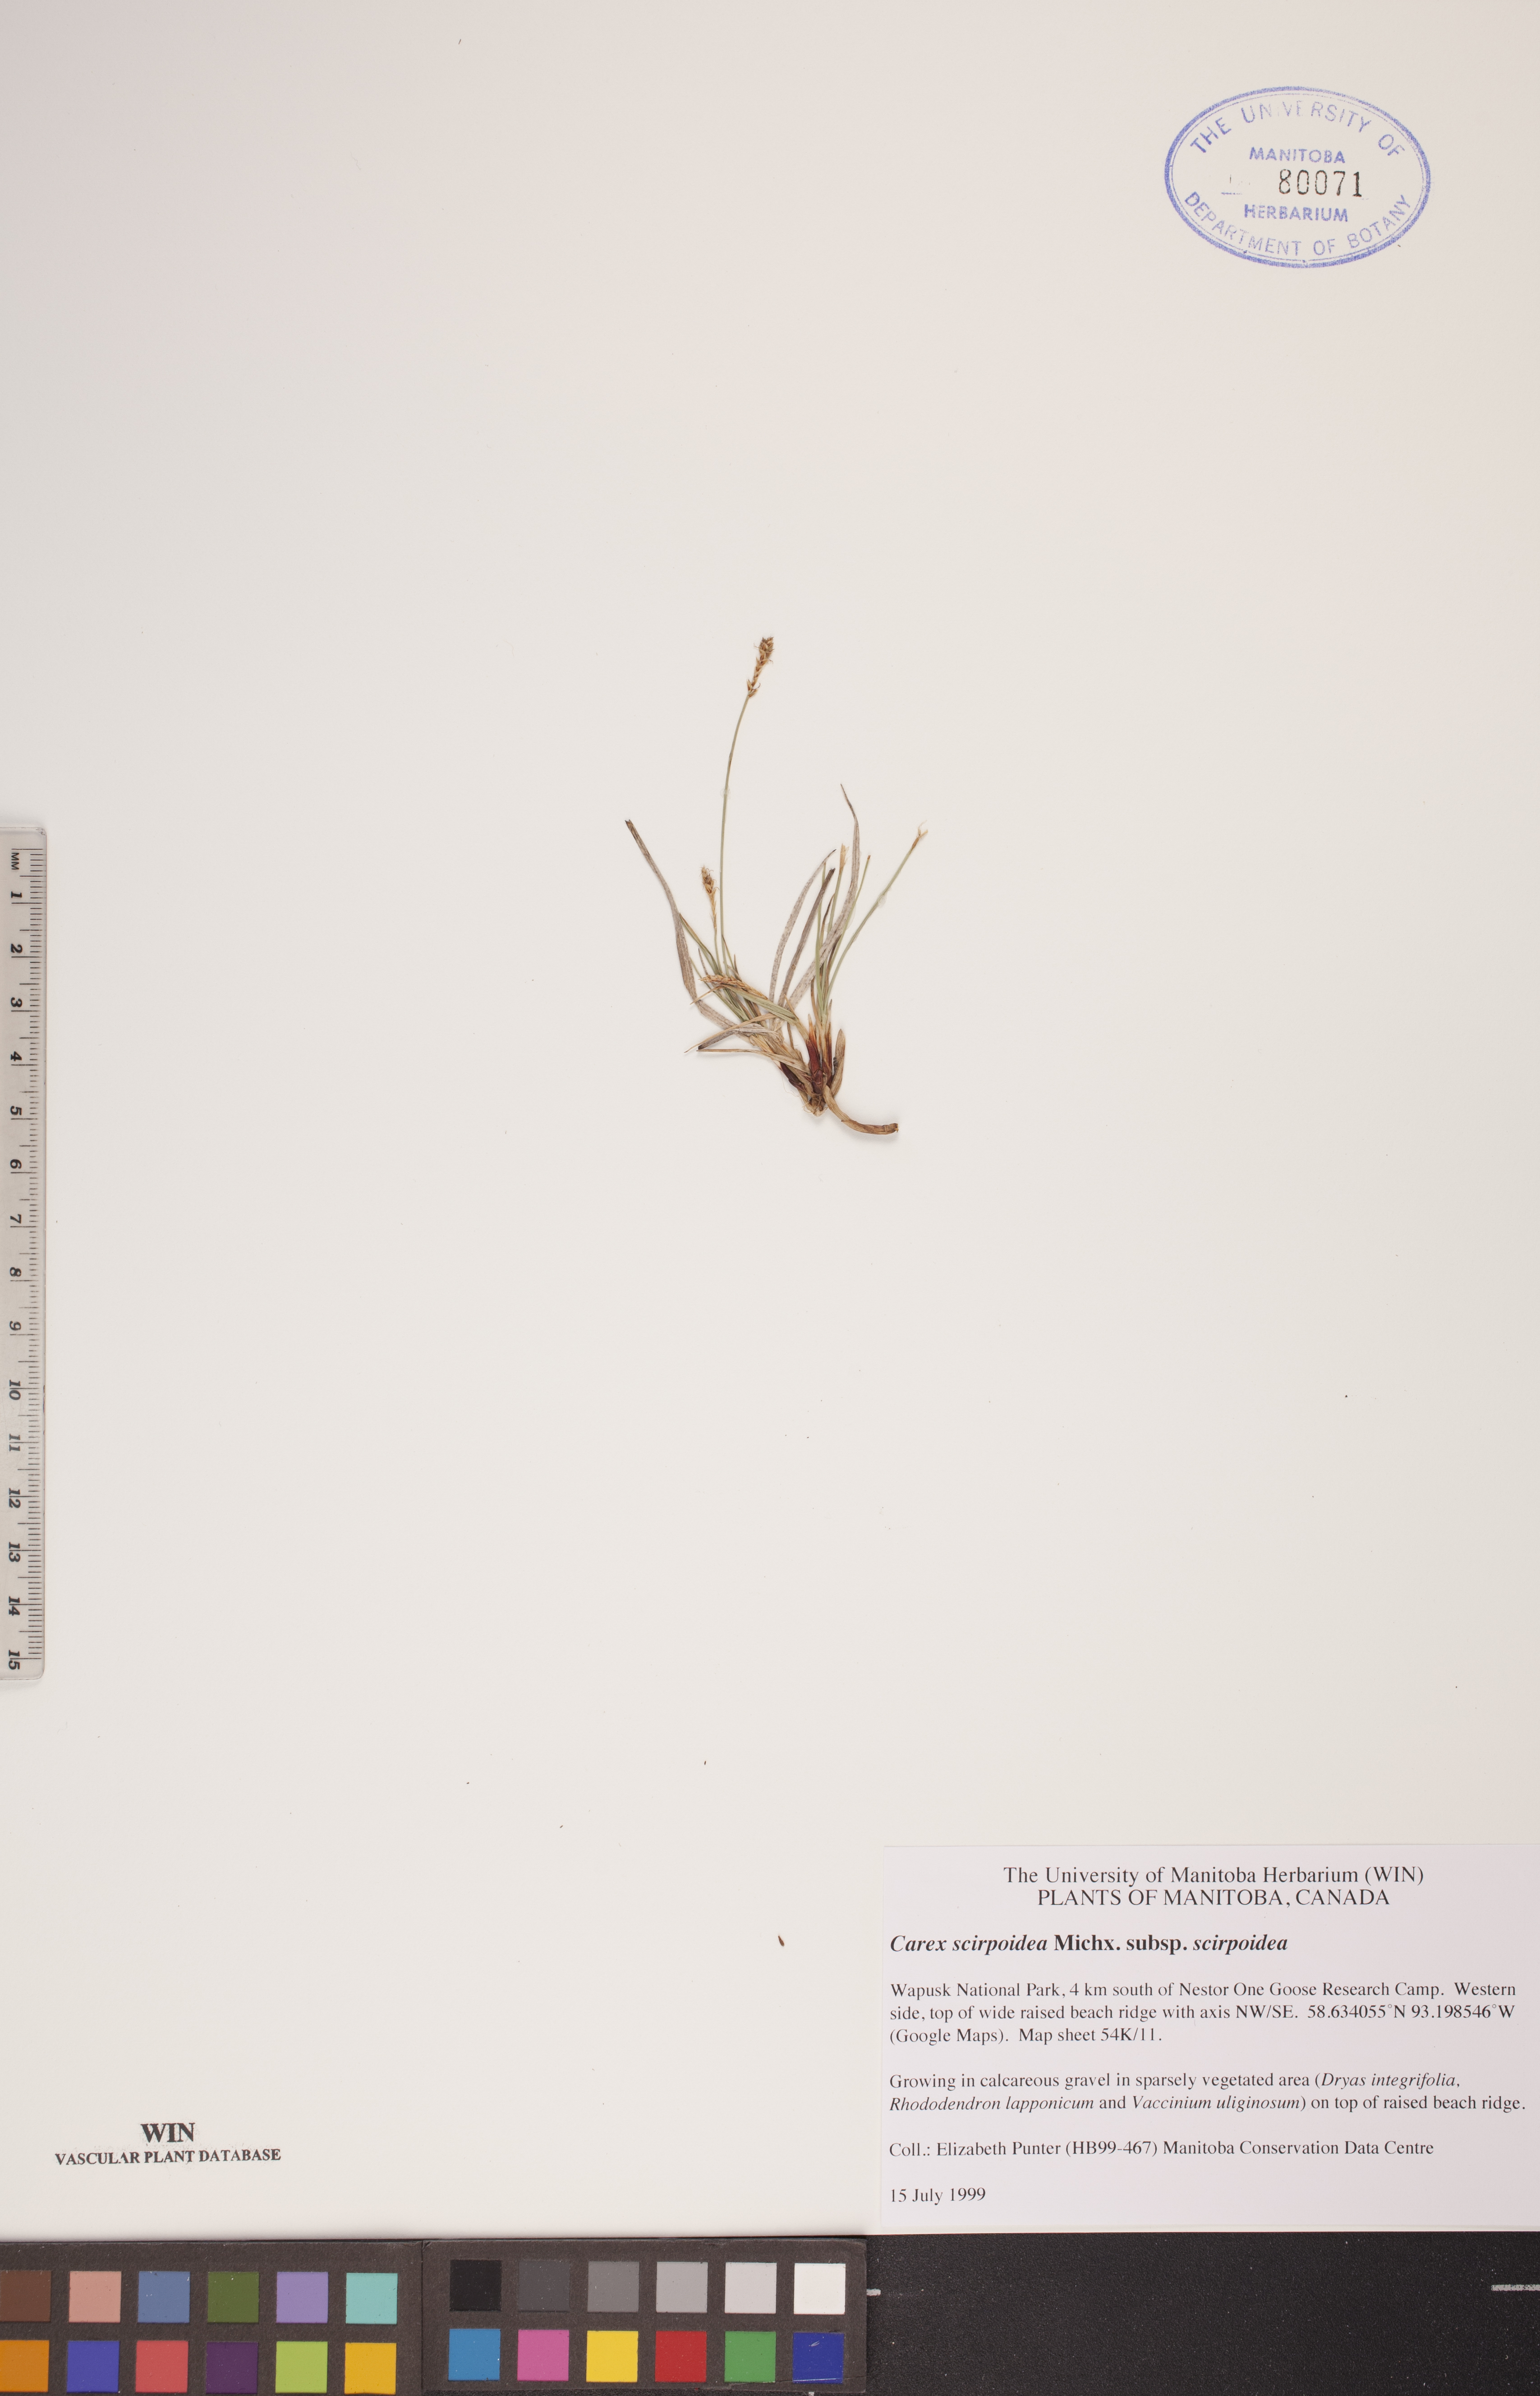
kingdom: Plantae
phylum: Tracheophyta
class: Liliopsida
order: Poales
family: Cyperaceae
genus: Carex
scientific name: Carex scirpoidea
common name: Canada single-spike sedge
